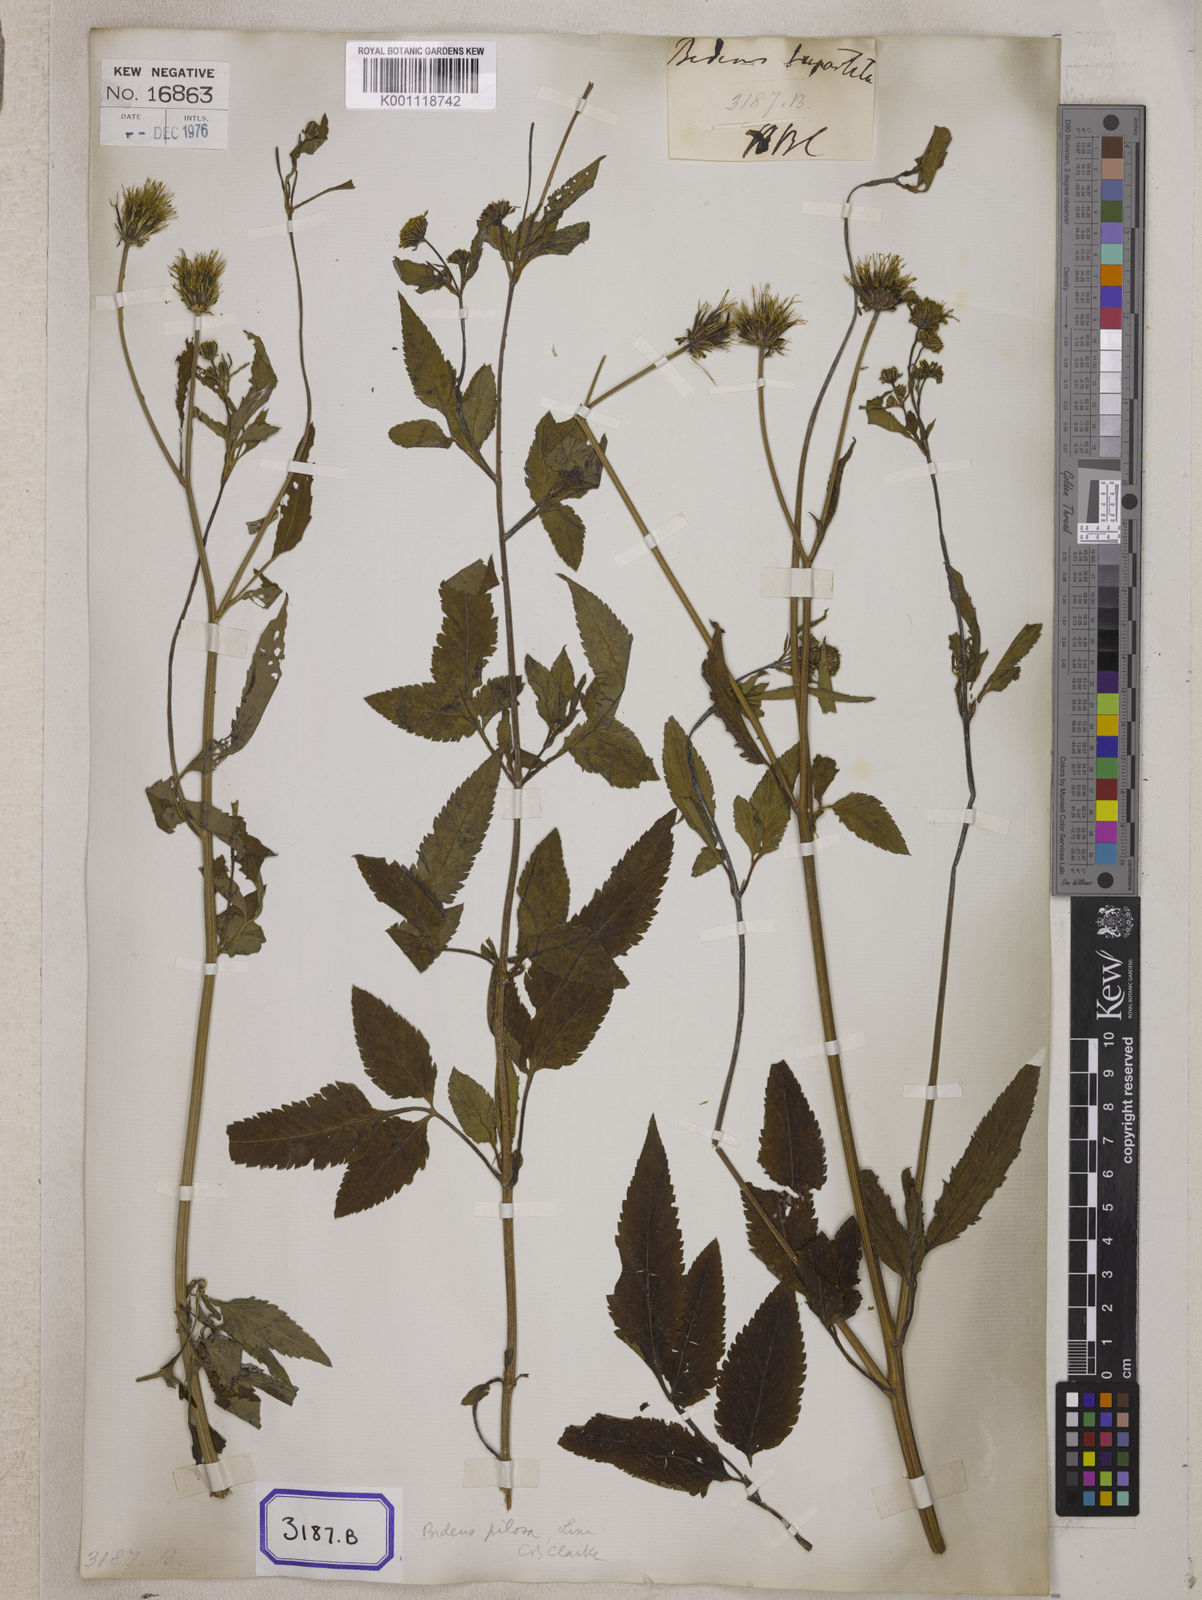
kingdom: Plantae
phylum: Tracheophyta
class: Magnoliopsida
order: Asterales
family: Asteraceae
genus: Bidens
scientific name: Bidens
